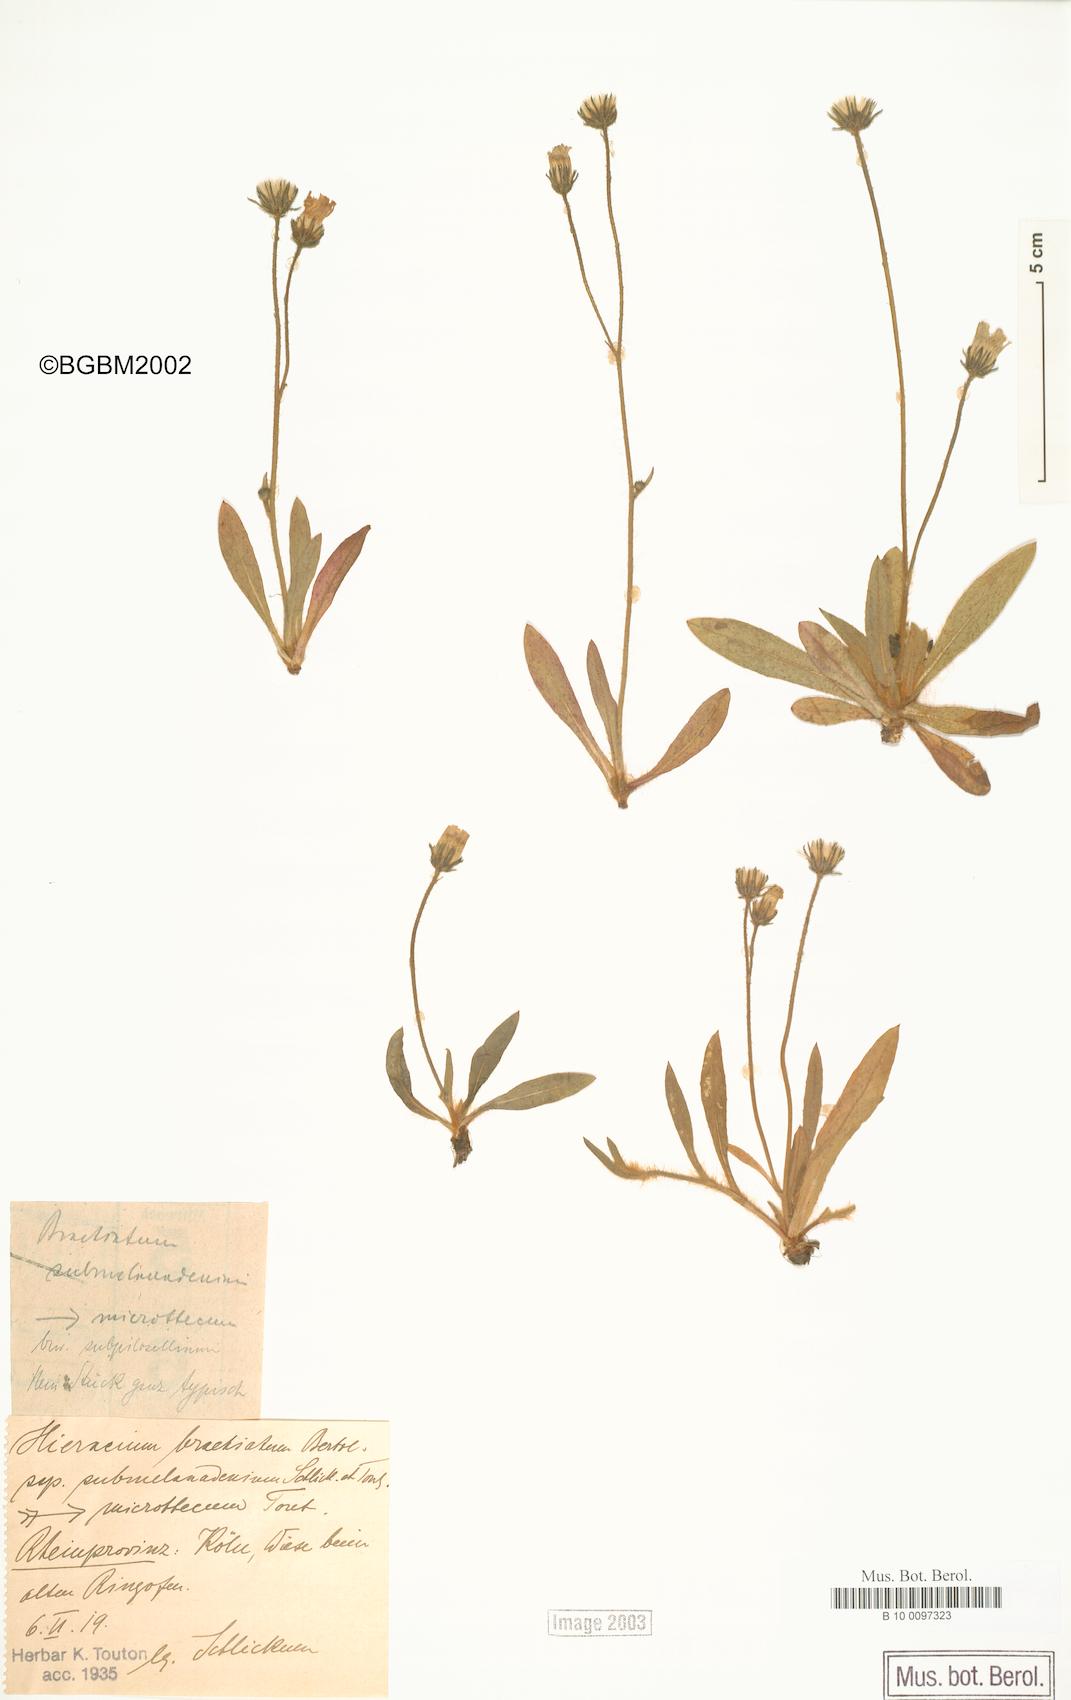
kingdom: Plantae
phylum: Tracheophyta
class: Magnoliopsida
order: Asterales
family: Asteraceae
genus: Pilosella
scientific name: Pilosella acutifolia
